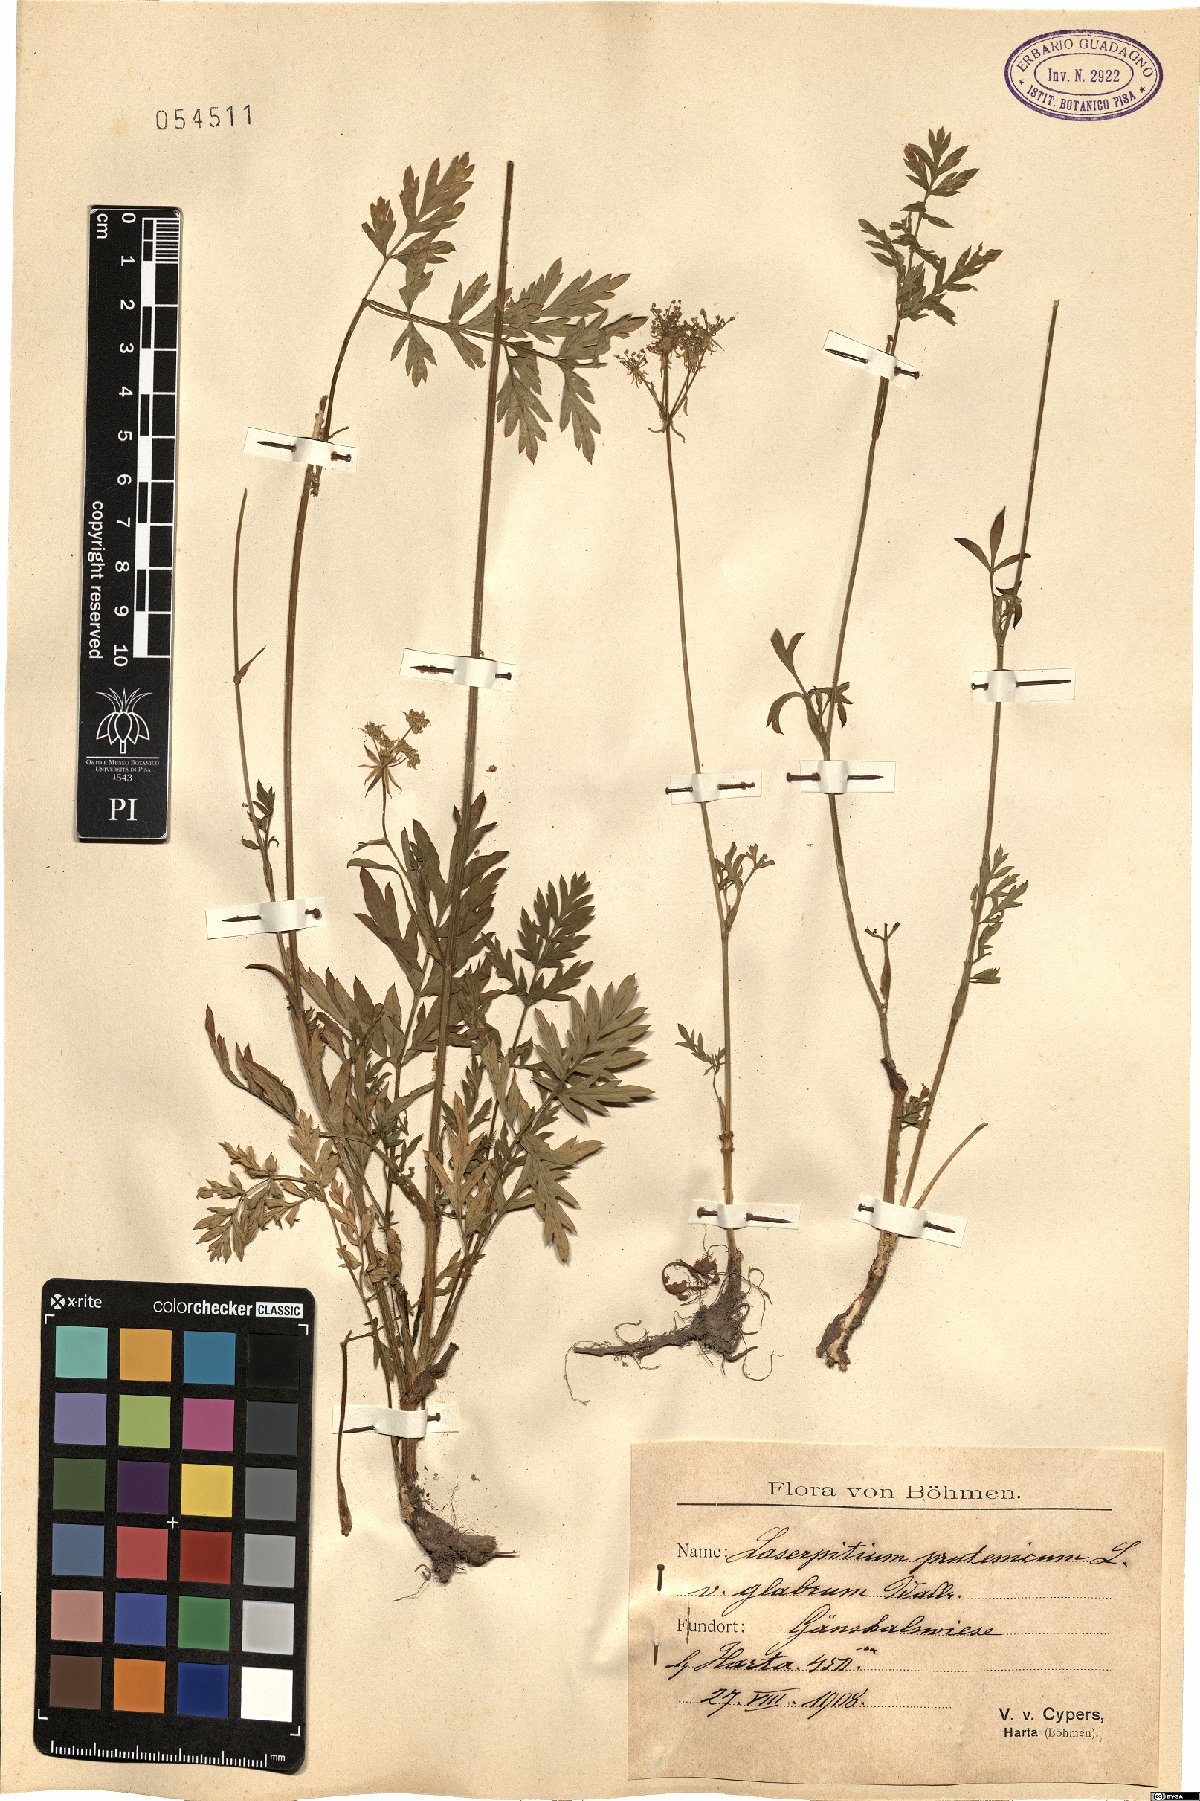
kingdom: Plantae
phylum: Tracheophyta
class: Magnoliopsida
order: Apiales
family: Apiaceae
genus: Silphiodaucus
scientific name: Silphiodaucus prutenicus
